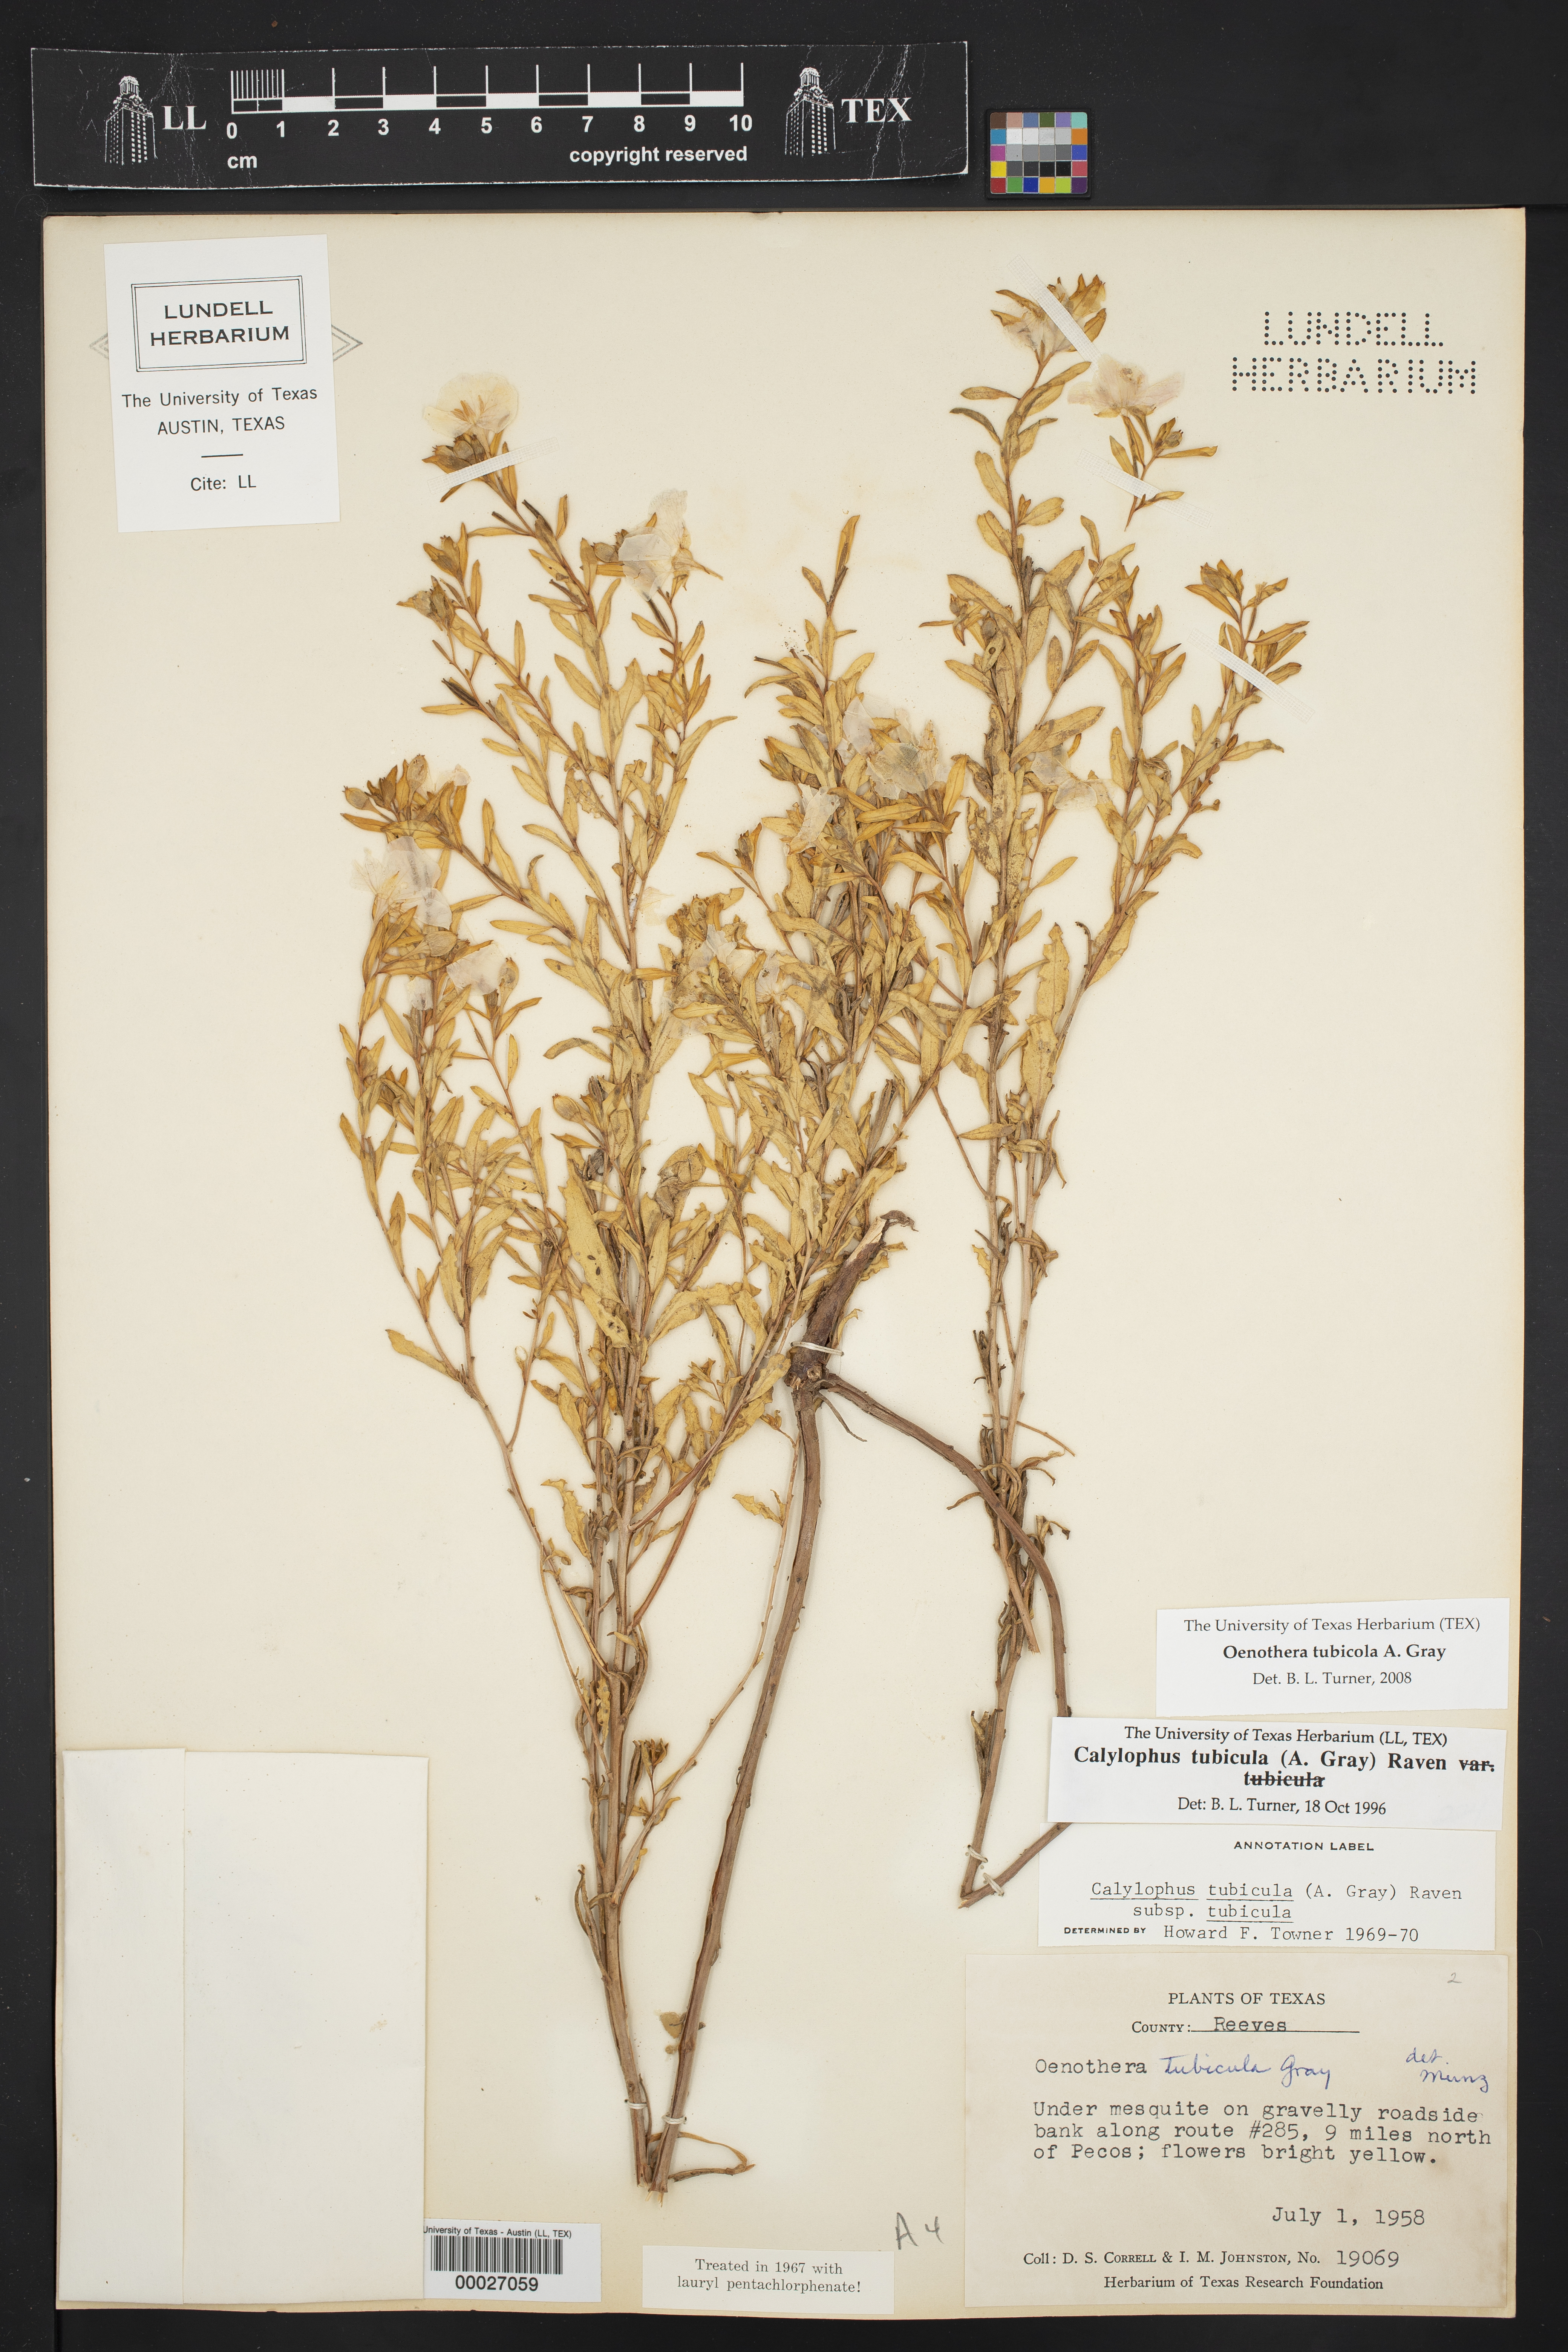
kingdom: Plantae
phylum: Tracheophyta
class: Magnoliopsida
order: Myrtales
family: Onagraceae
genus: Oenothera
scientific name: Oenothera tubicula
